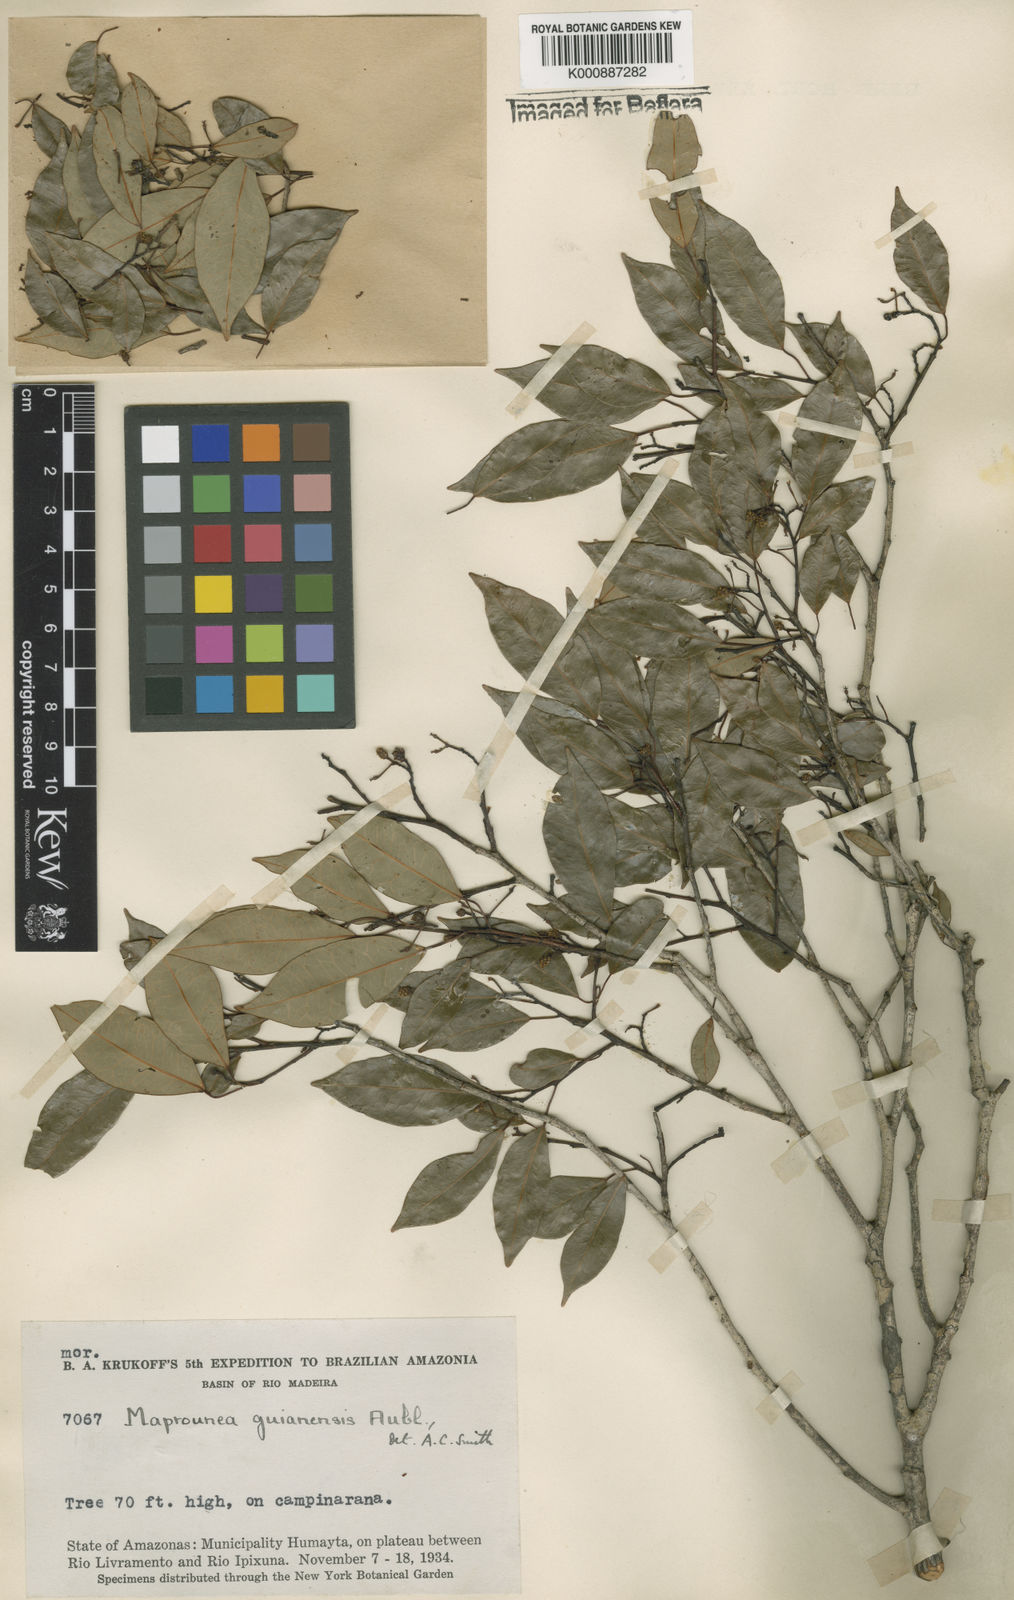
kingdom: Plantae
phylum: Tracheophyta
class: Magnoliopsida
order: Malpighiales
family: Euphorbiaceae
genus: Maprounea
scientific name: Maprounea guianensis
